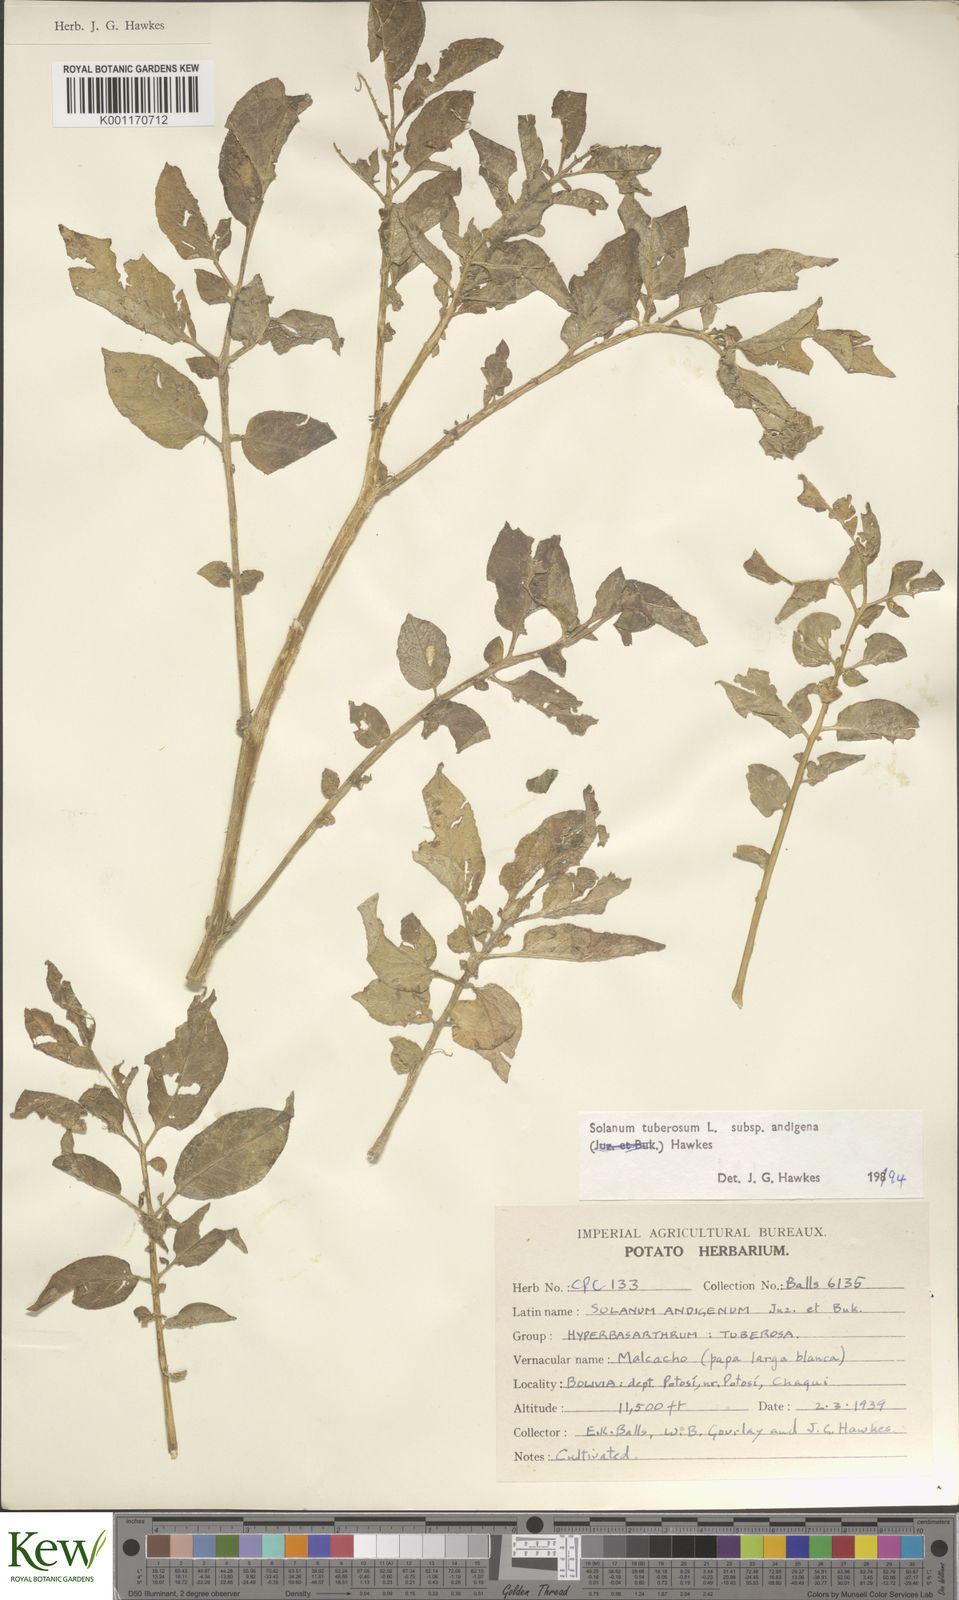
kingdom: Plantae
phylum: Tracheophyta
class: Magnoliopsida
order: Solanales
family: Solanaceae
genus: Solanum
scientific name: Solanum tuberosum
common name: Potato
